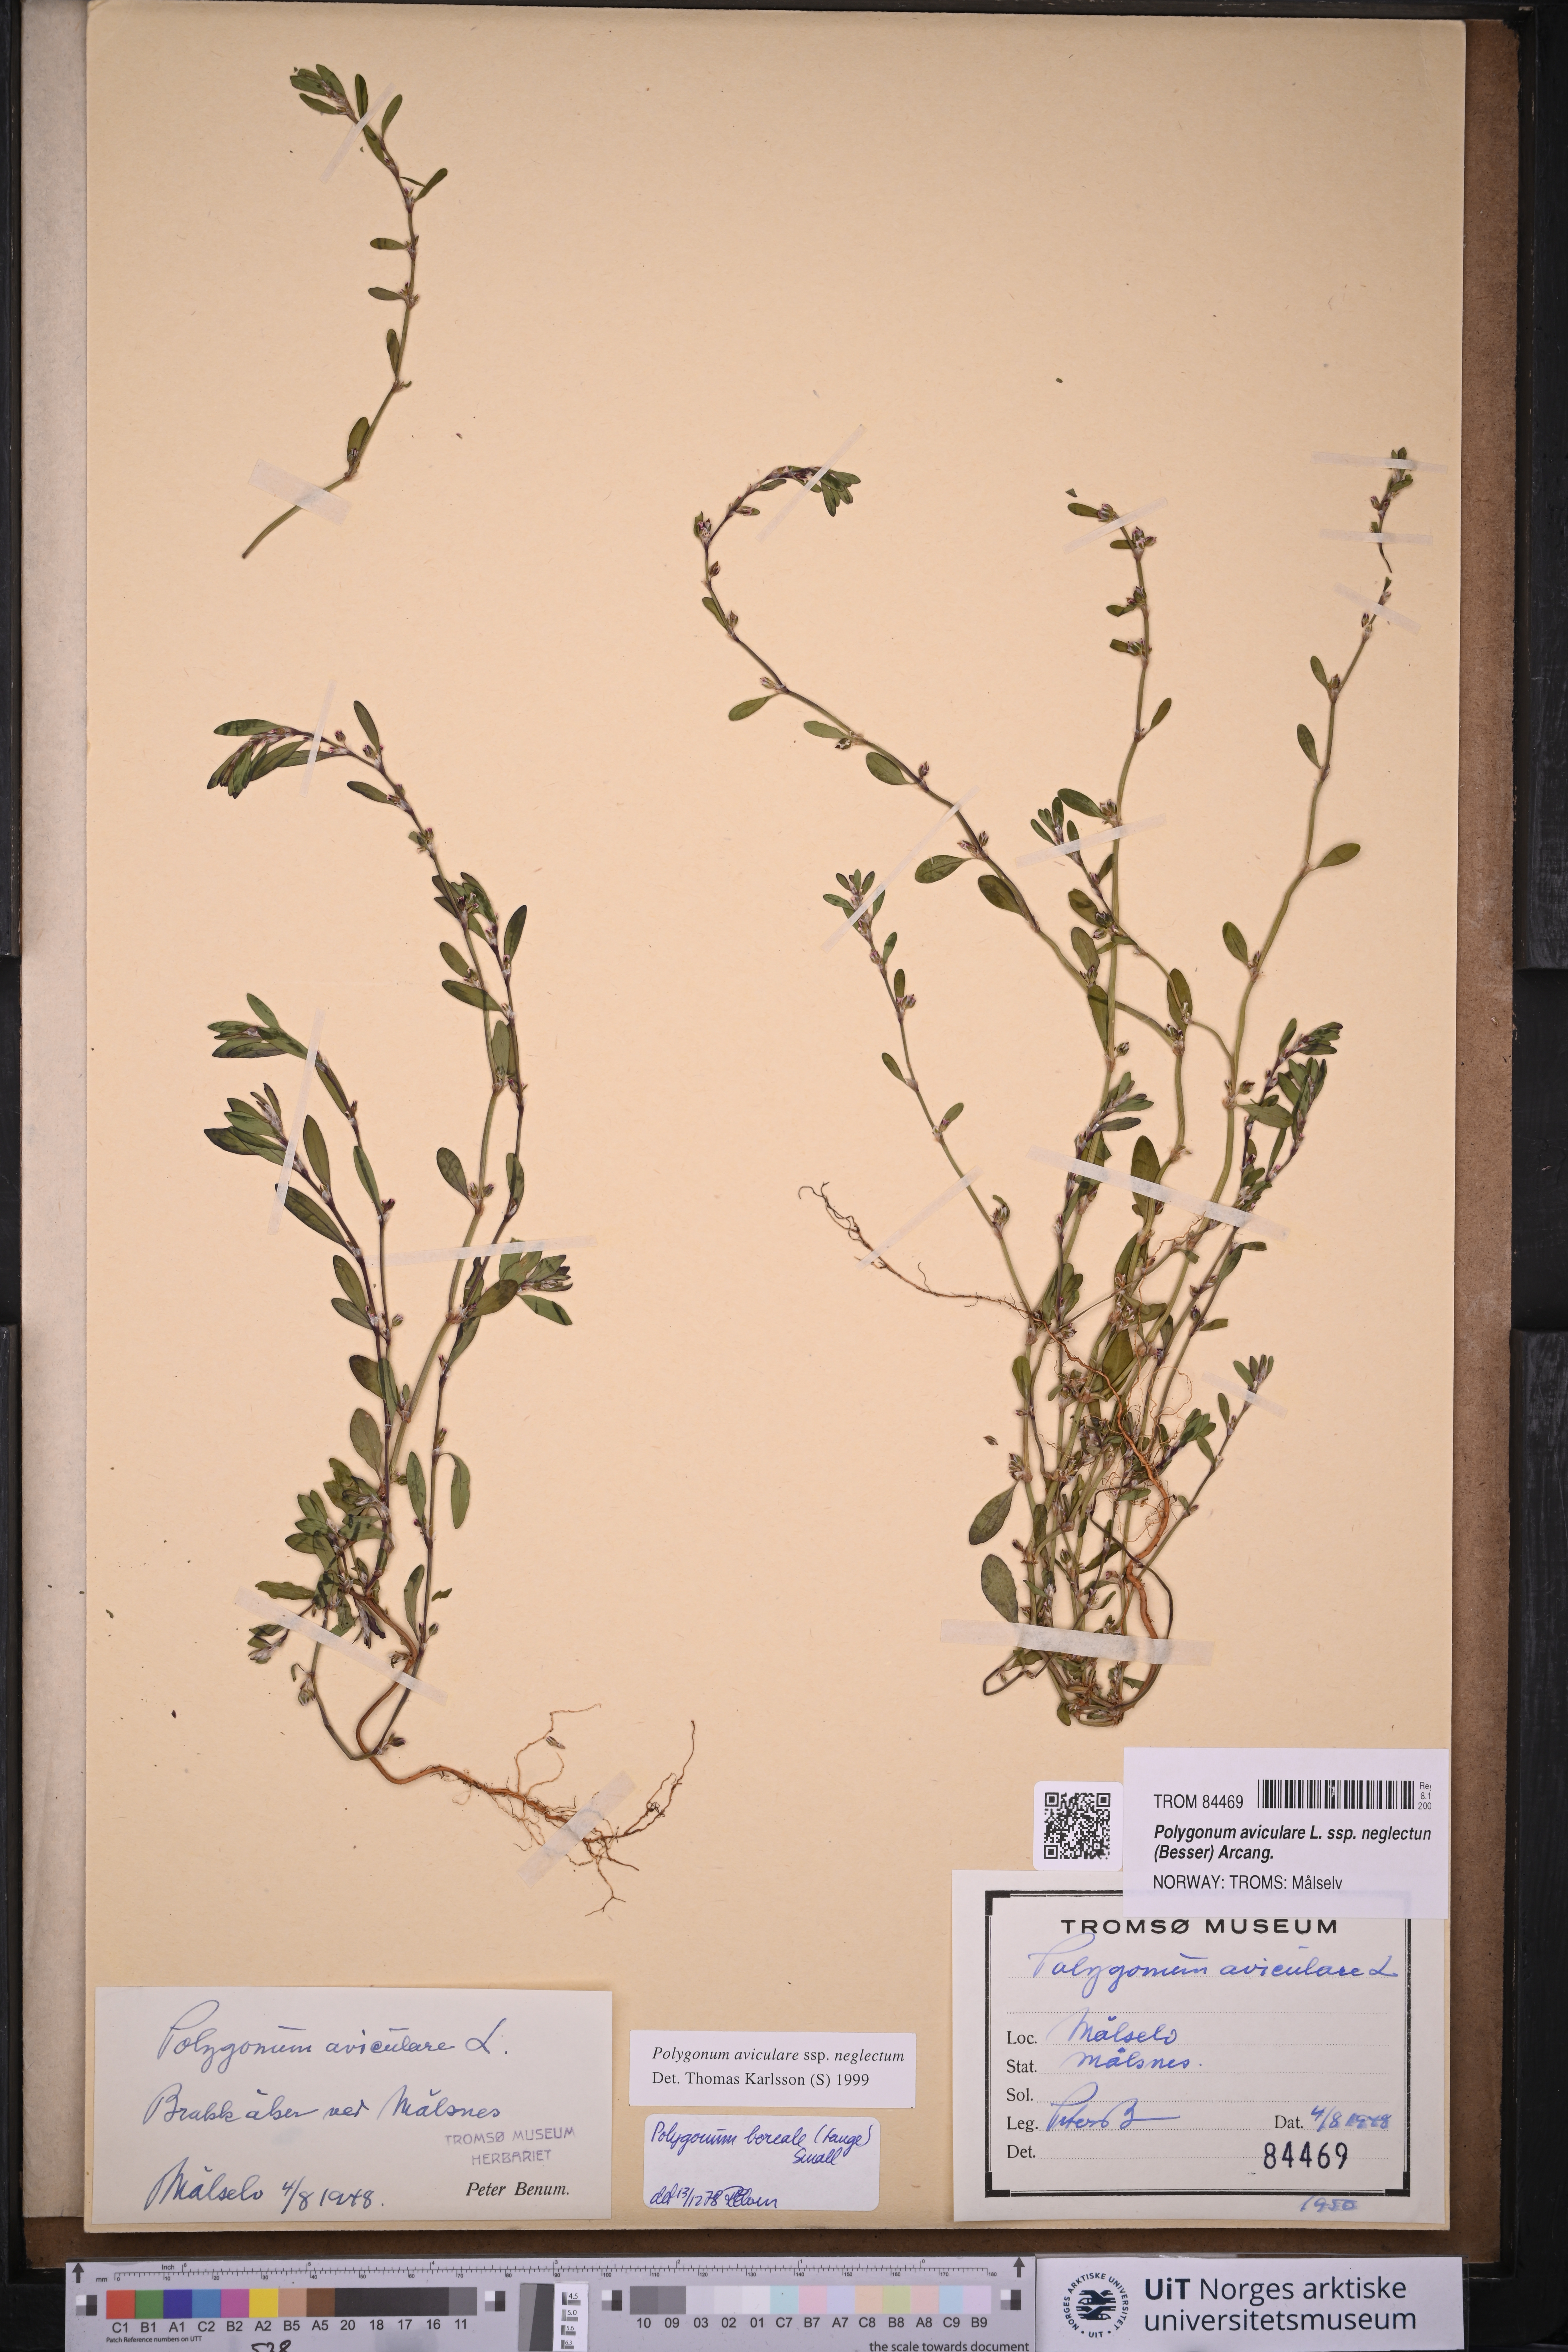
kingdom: Plantae
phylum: Tracheophyta
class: Magnoliopsida
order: Caryophyllales
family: Polygonaceae
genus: Polygonum
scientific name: Polygonum aviculare
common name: Prostrate knotweed
